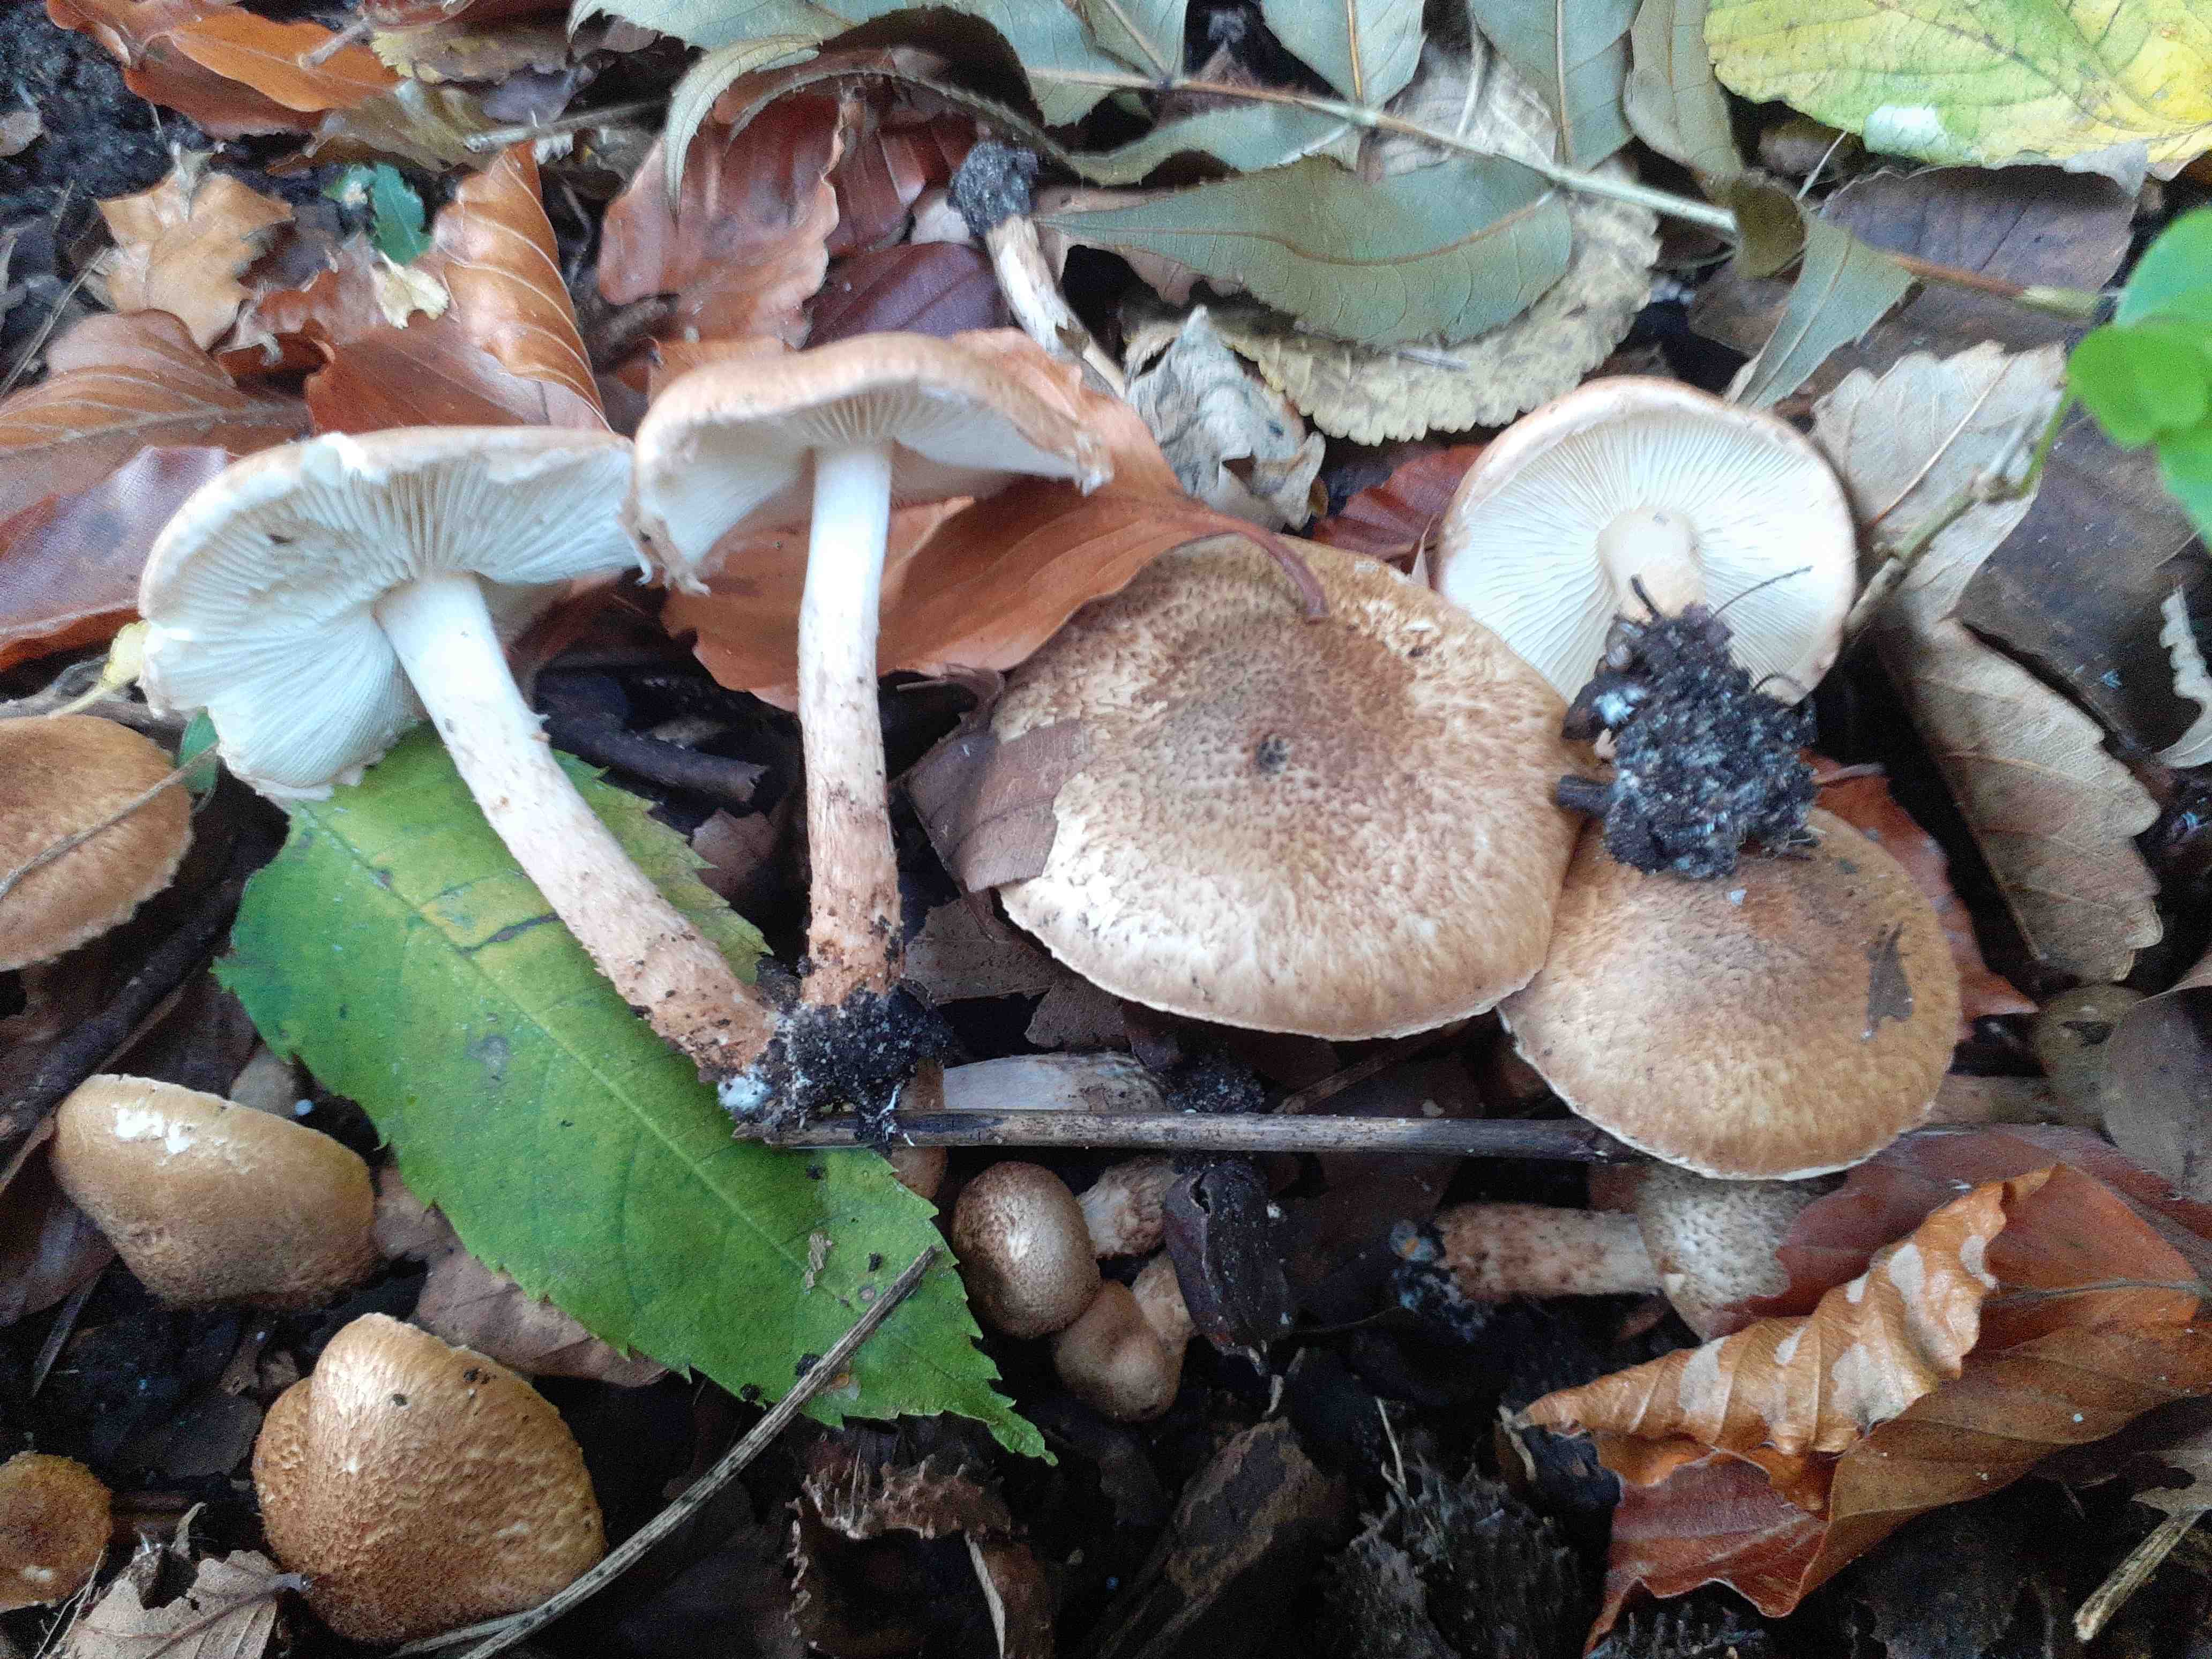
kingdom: Fungi
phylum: Basidiomycota
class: Agaricomycetes
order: Agaricales
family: Agaricaceae
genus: Leucocoprinus
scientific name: Leucocoprinus straminellus
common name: rustbrun parasolhat
